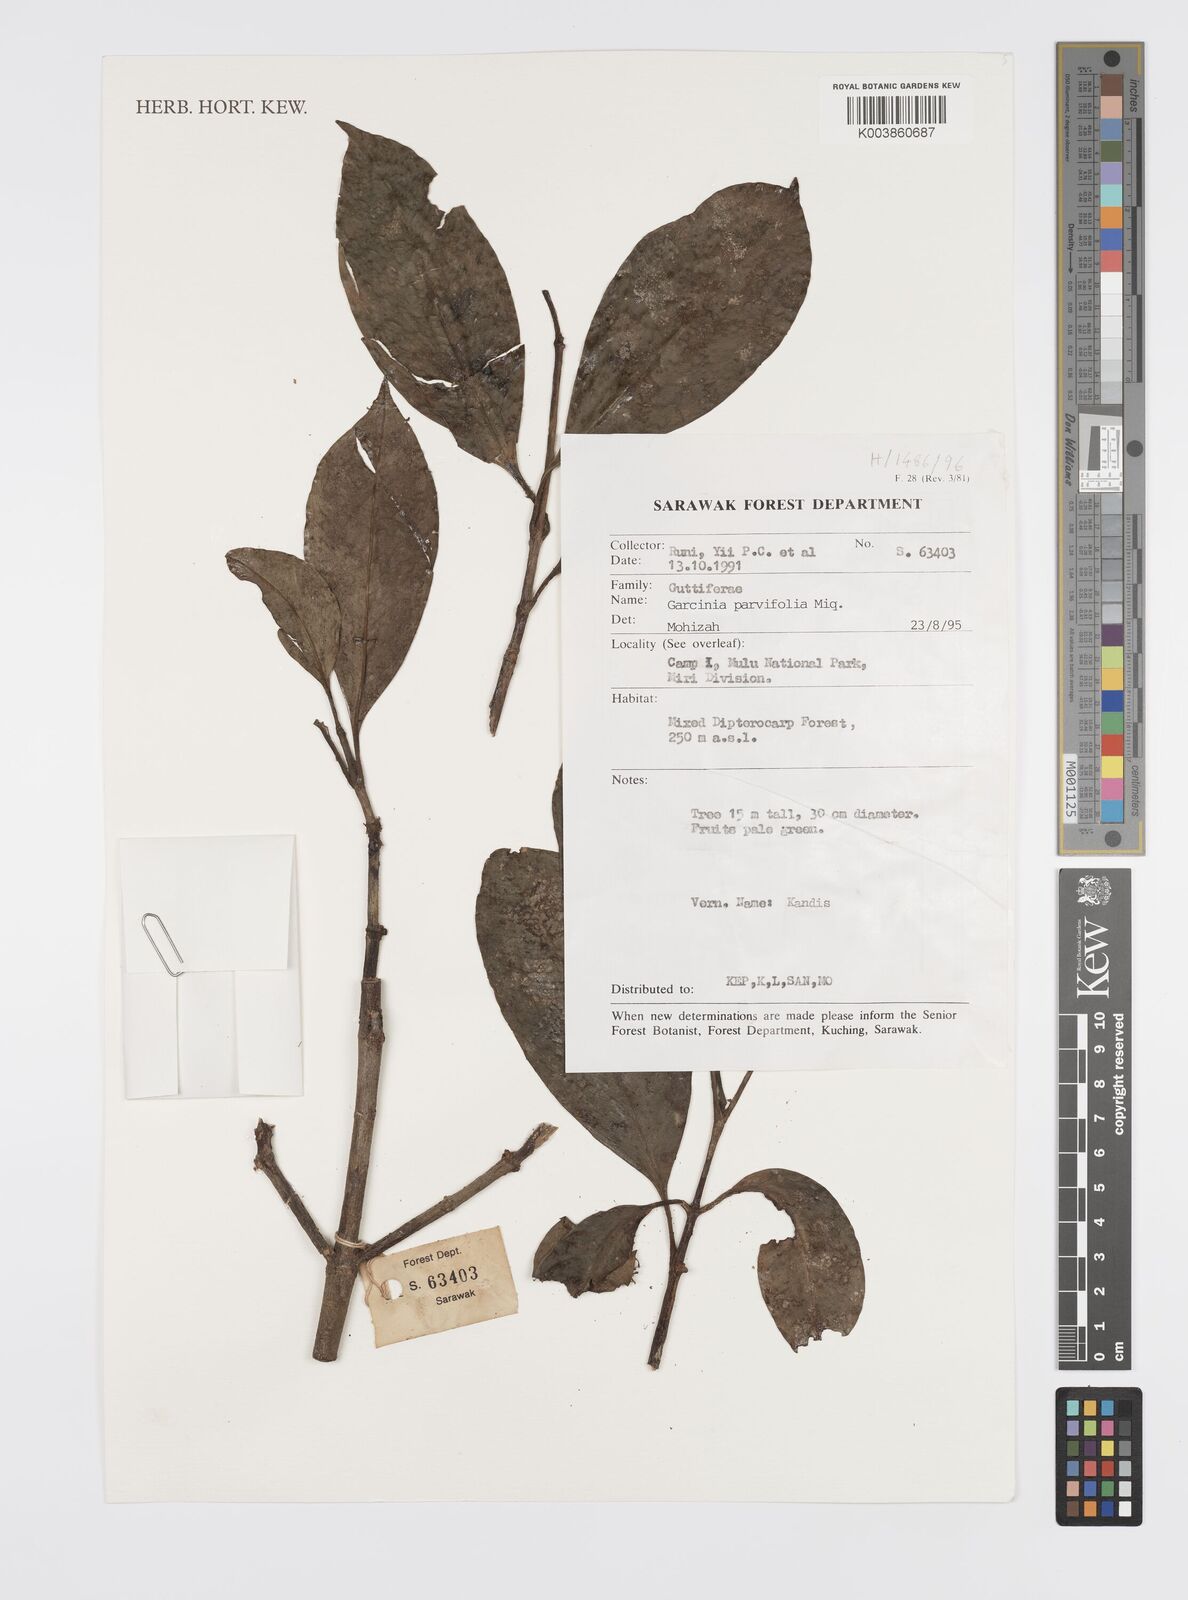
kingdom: Plantae
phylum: Tracheophyta
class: Magnoliopsida
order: Malpighiales
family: Clusiaceae
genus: Garcinia
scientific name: Garcinia parvifolia
